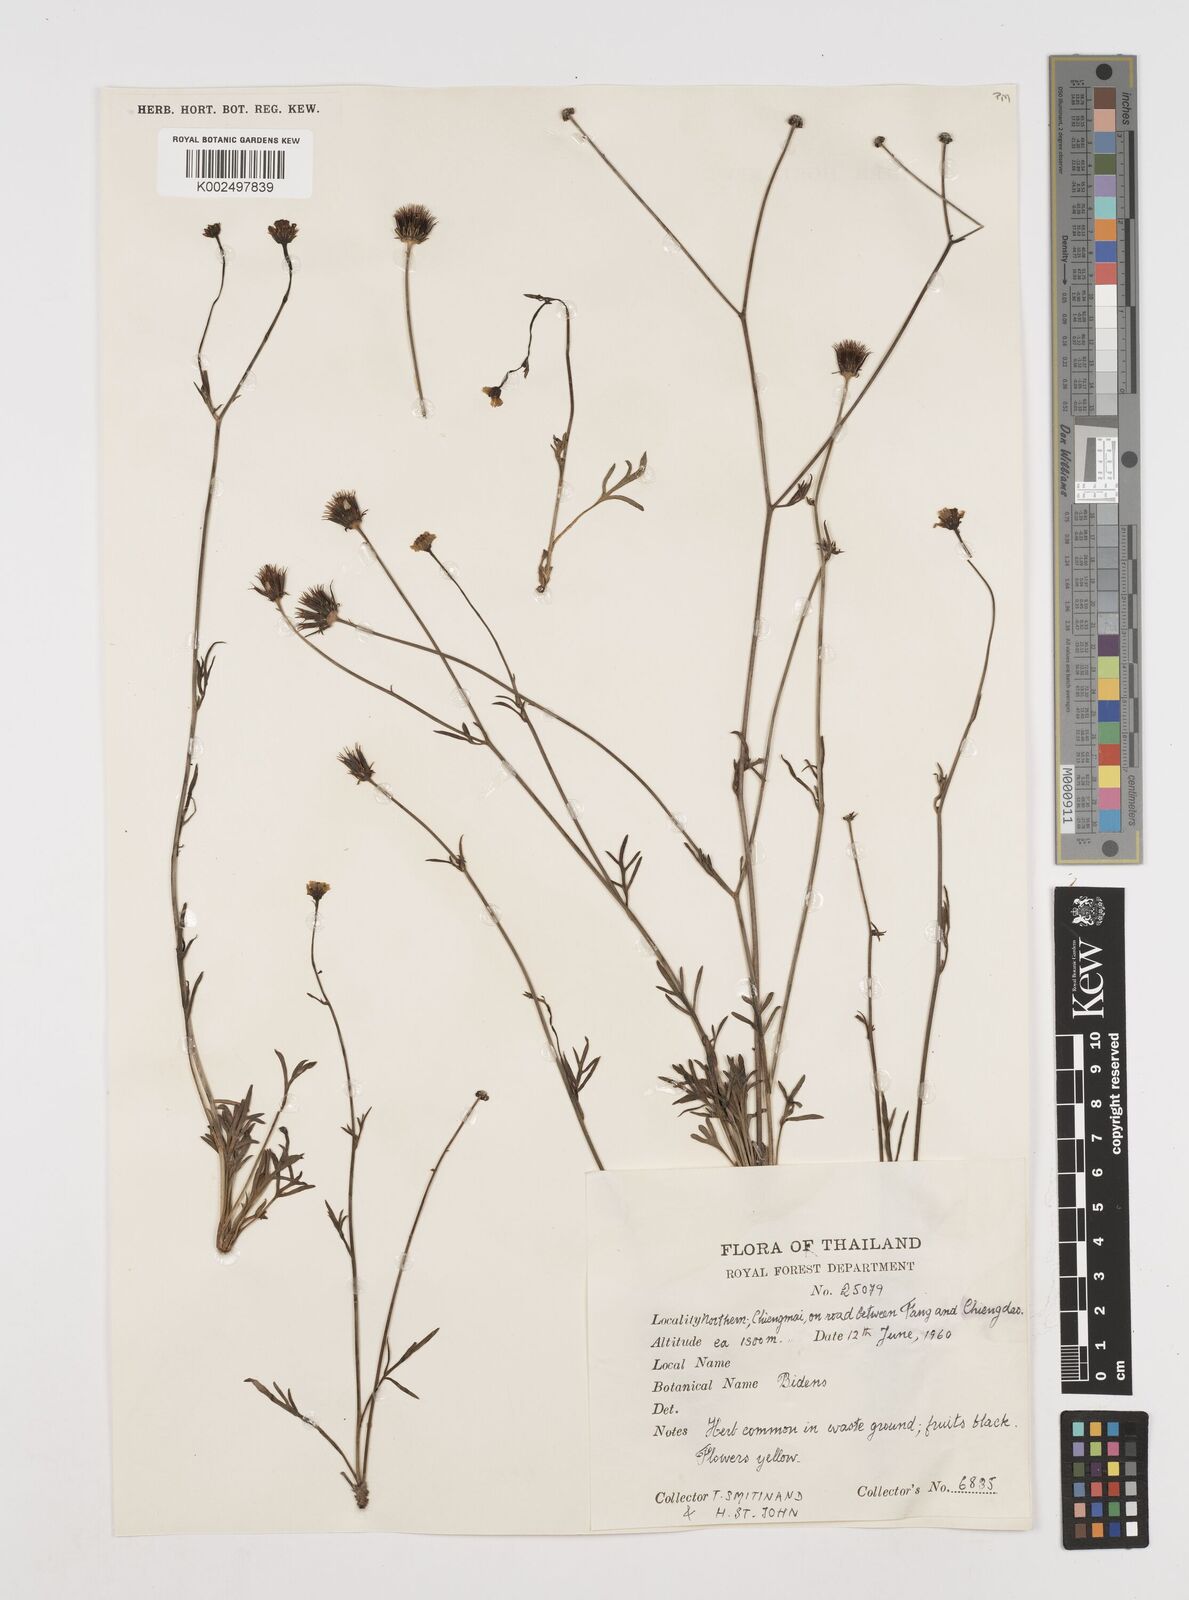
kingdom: Plantae
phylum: Tracheophyta
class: Magnoliopsida
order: Asterales
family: Asteraceae
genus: Bidens
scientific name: Bidens
